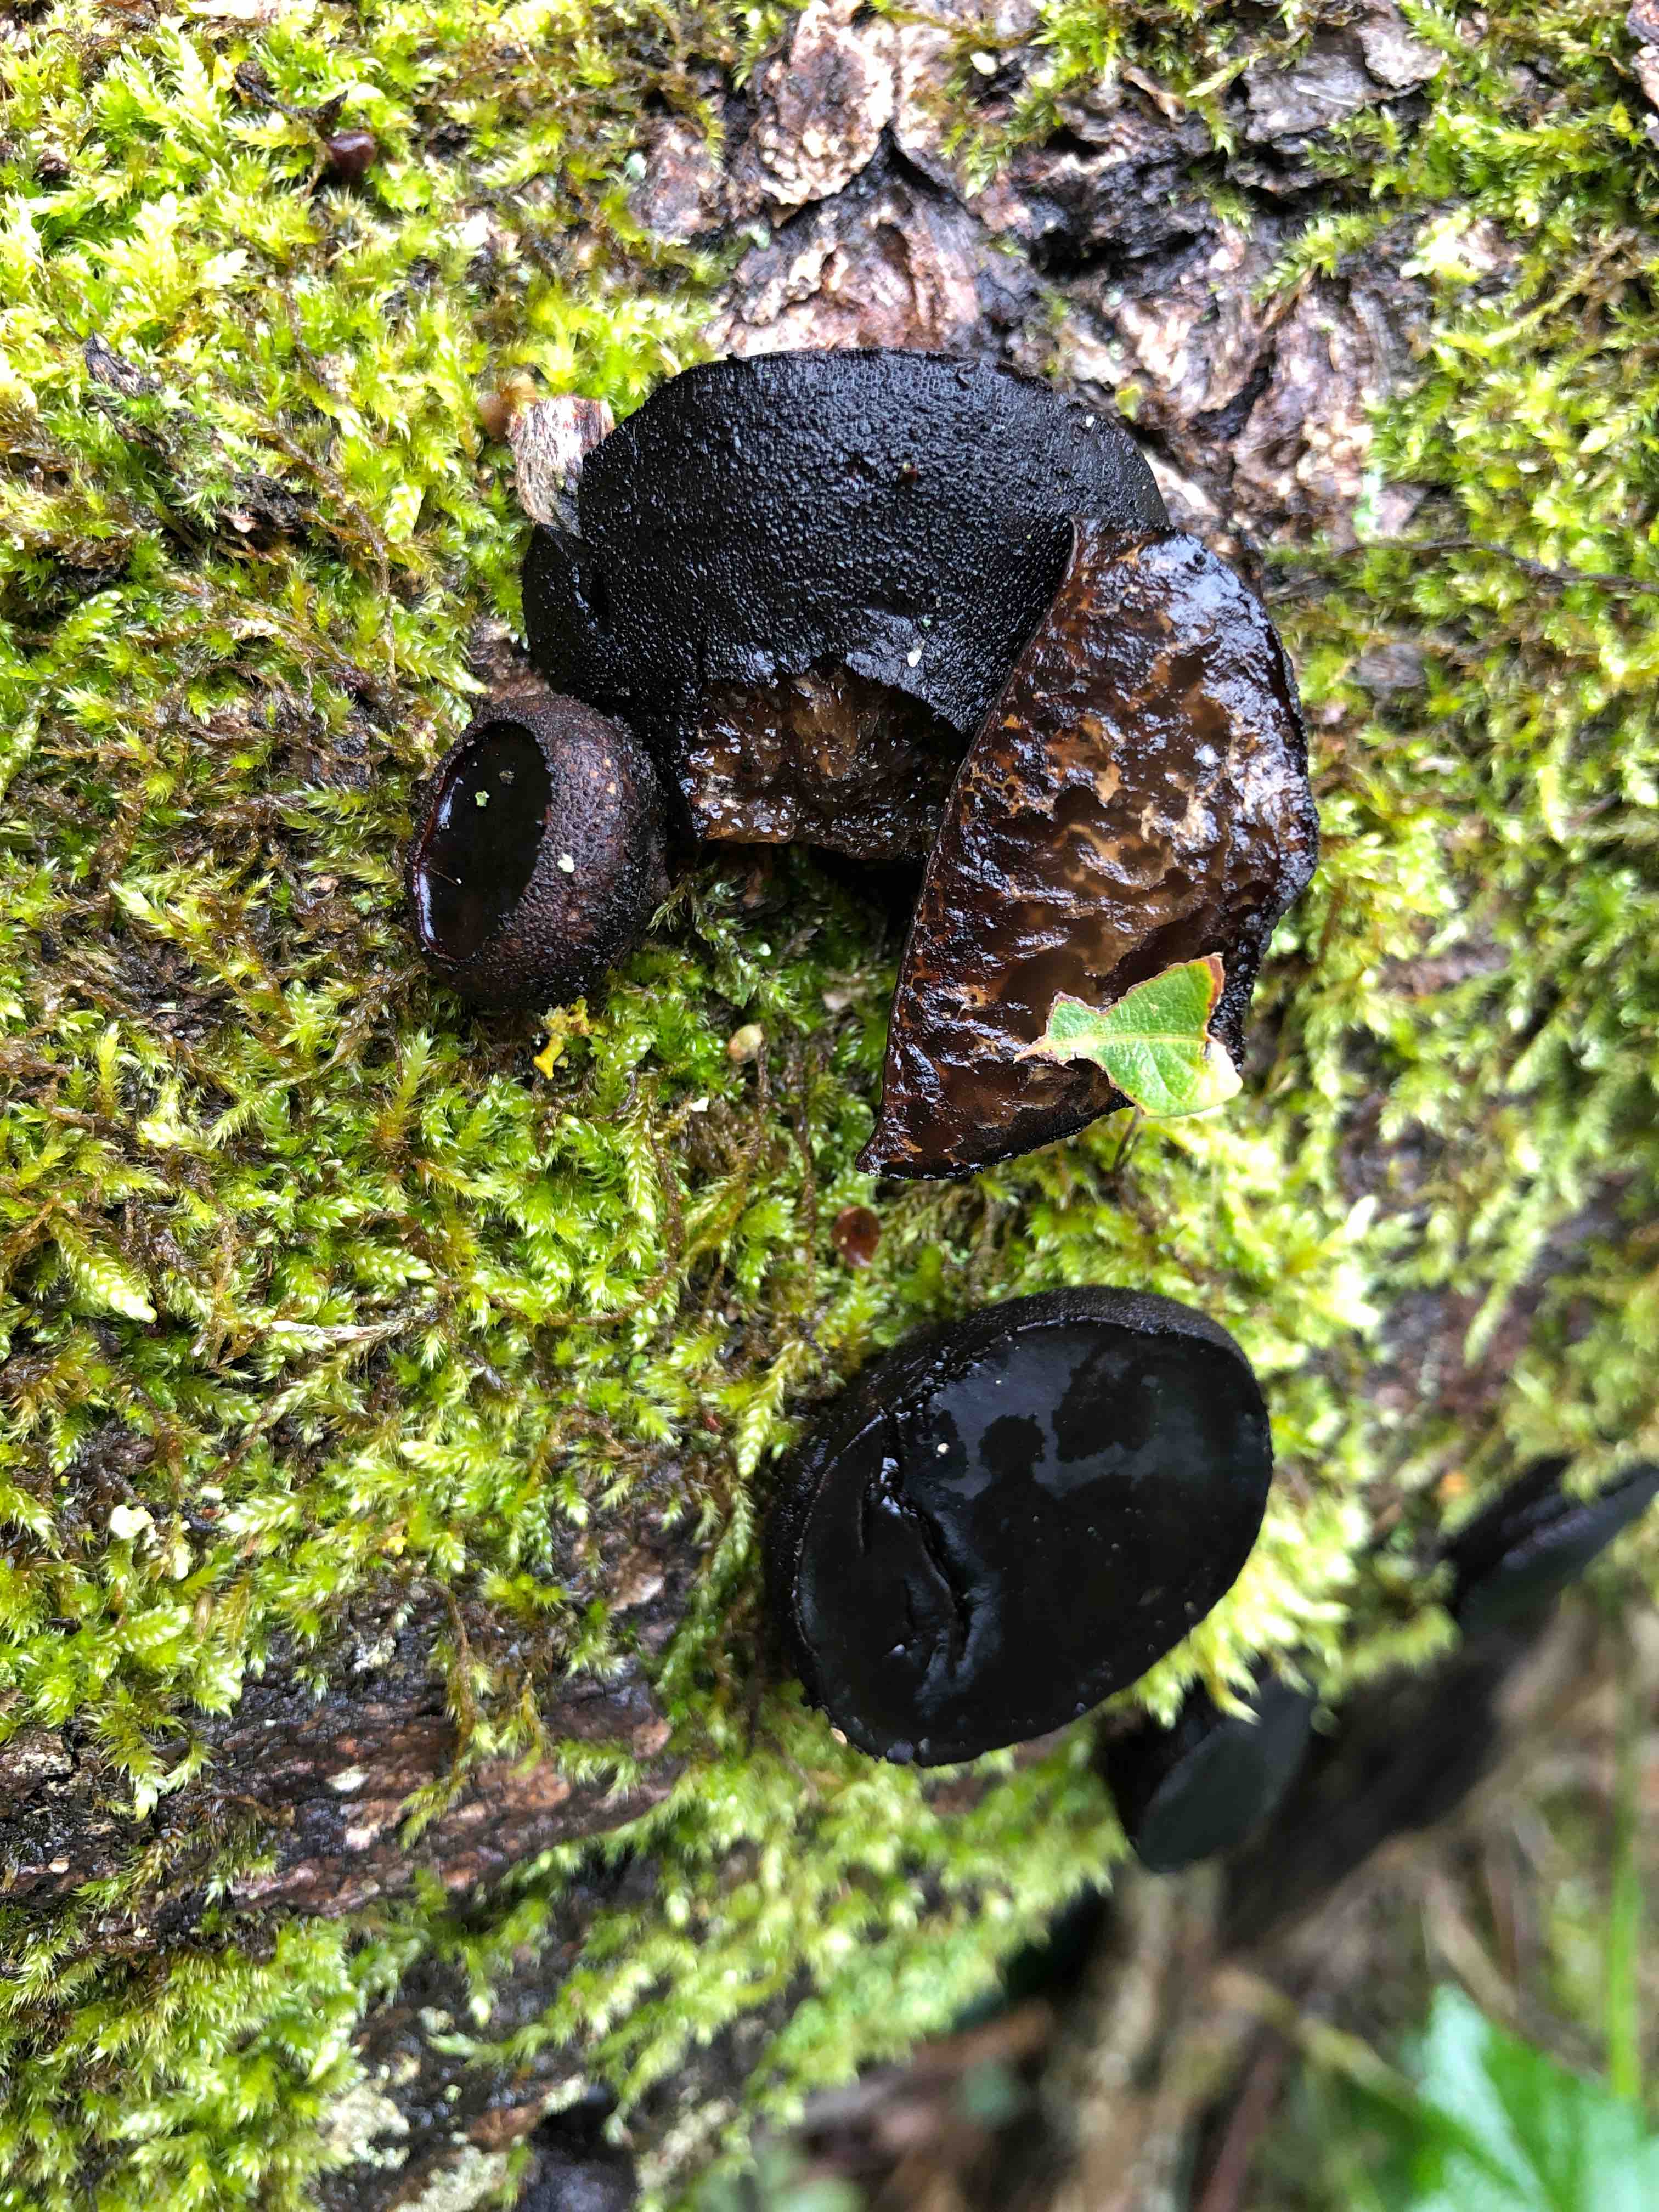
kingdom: Fungi
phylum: Ascomycota
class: Leotiomycetes
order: Phacidiales
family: Phacidiaceae
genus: Bulgaria
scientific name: Bulgaria inquinans
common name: afsmittende topsvamp
